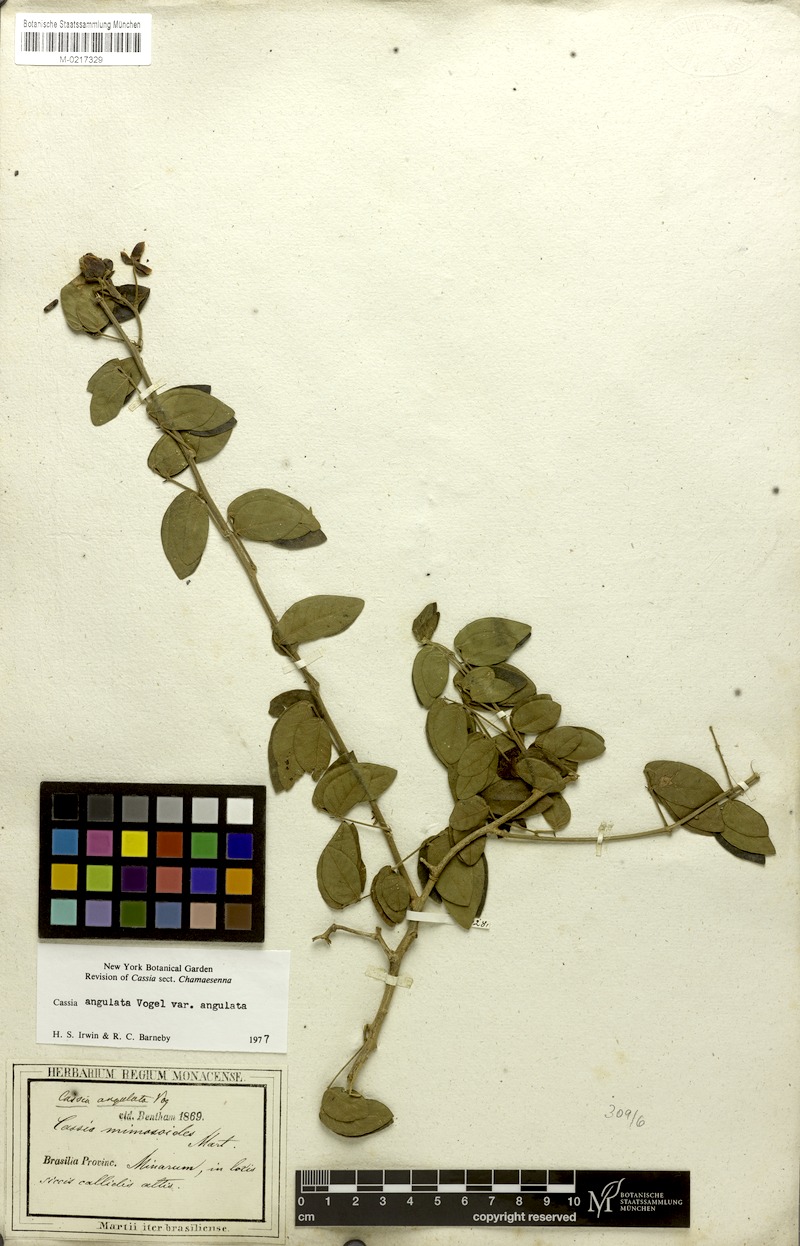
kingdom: Plantae
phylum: Tracheophyta
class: Magnoliopsida
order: Fabales
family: Fabaceae
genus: Senna
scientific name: Senna angulata
